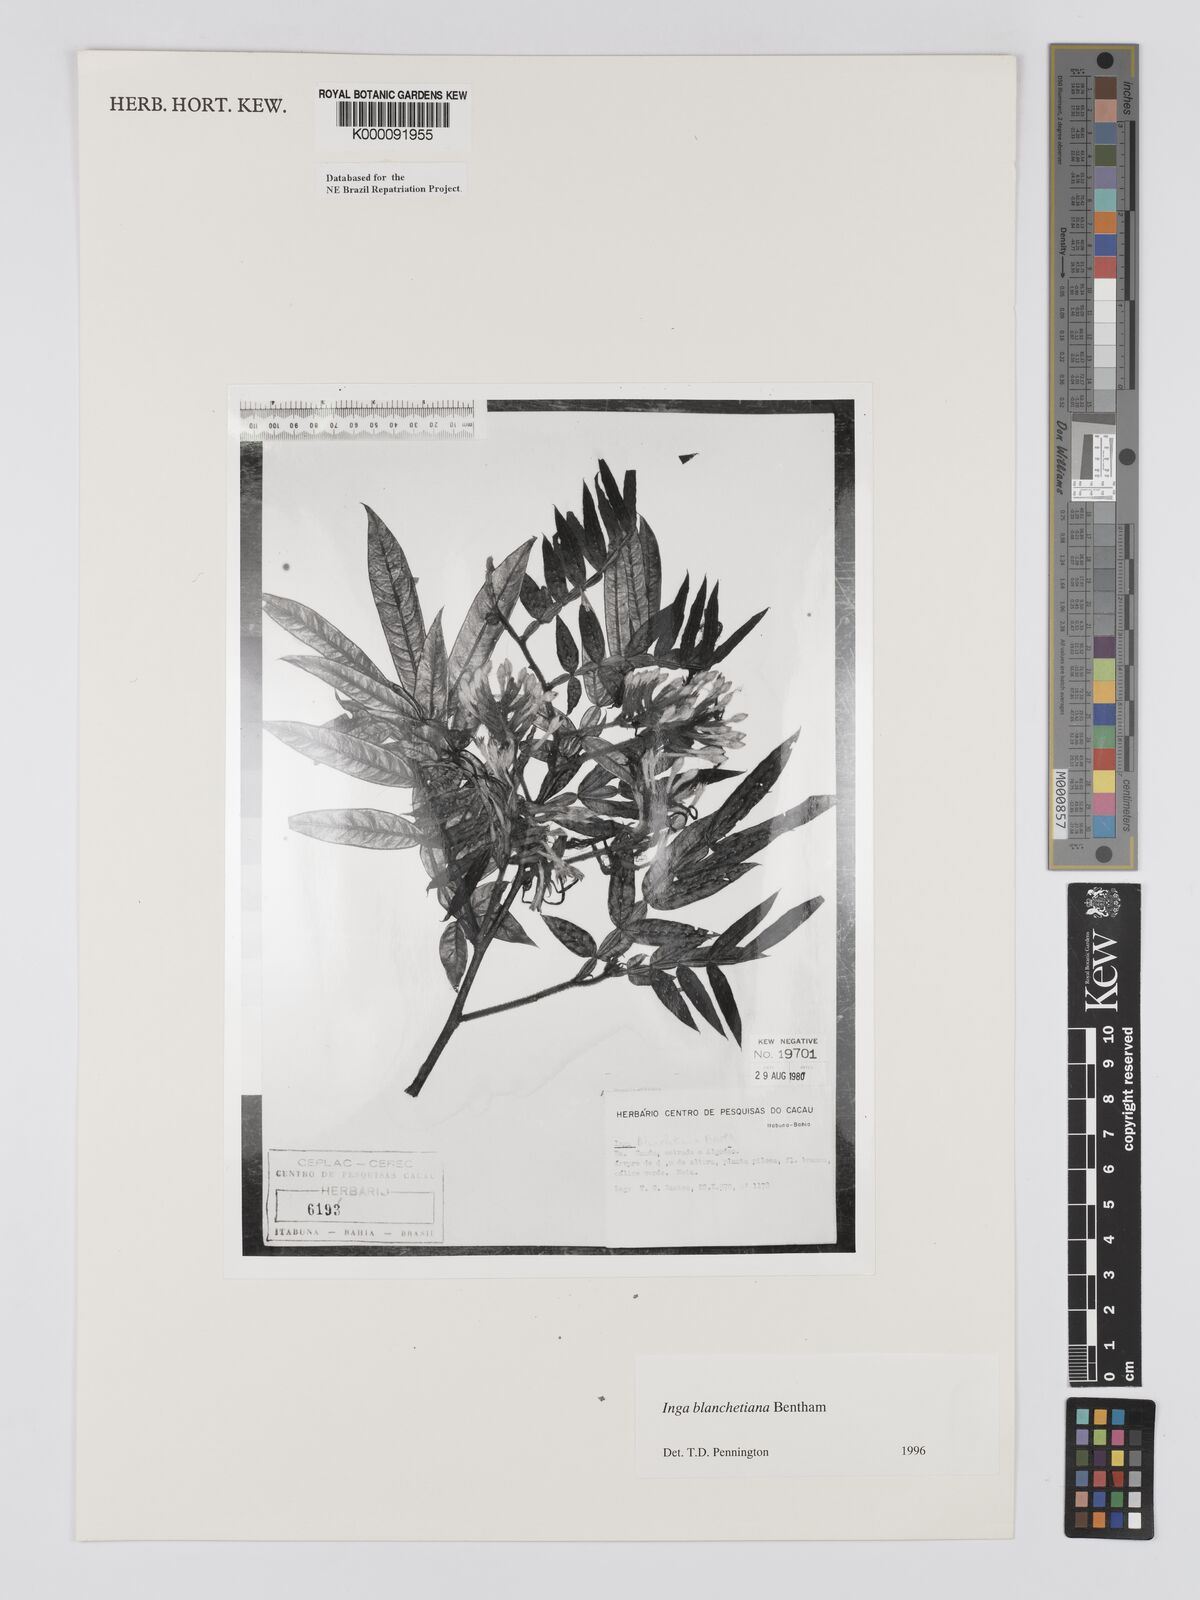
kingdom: Plantae
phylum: Tracheophyta
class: Magnoliopsida
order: Fabales
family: Fabaceae
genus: Inga
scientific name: Inga blanchetiana
